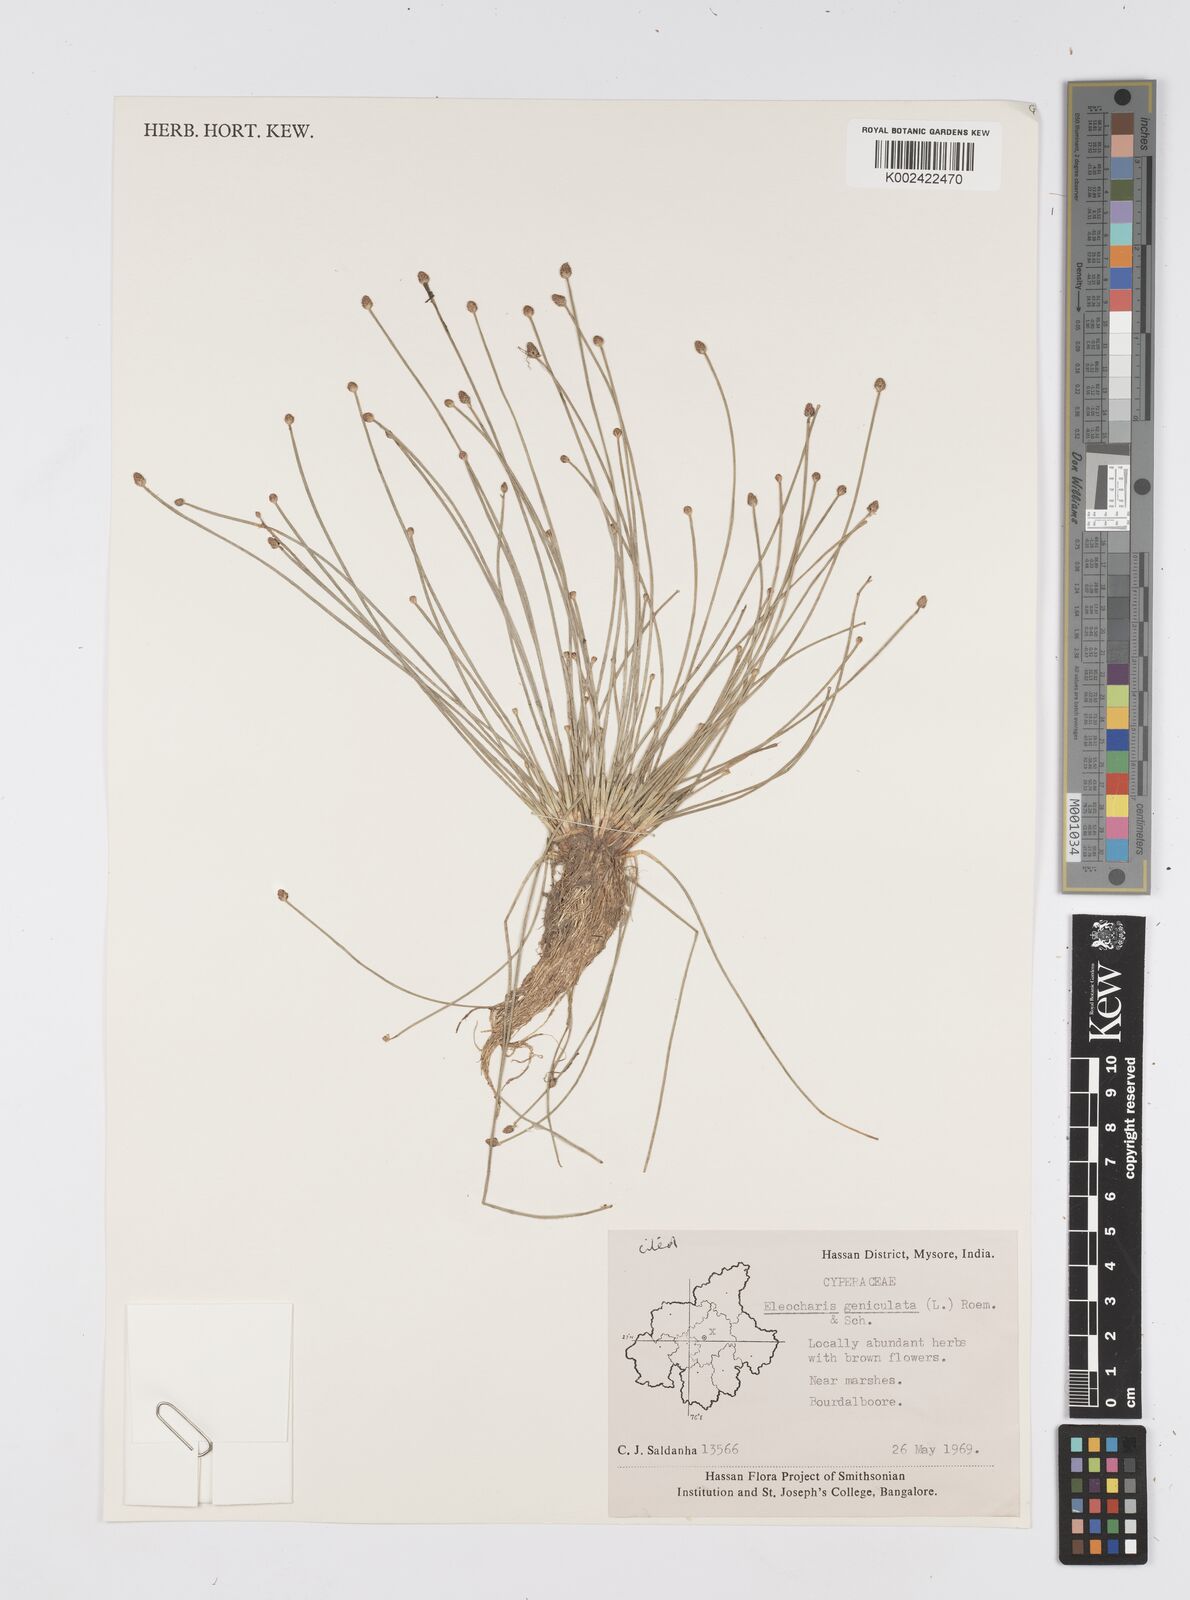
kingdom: Plantae
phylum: Tracheophyta
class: Liliopsida
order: Poales
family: Cyperaceae
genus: Eleocharis
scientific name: Eleocharis geniculata
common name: Canada spikesedge
